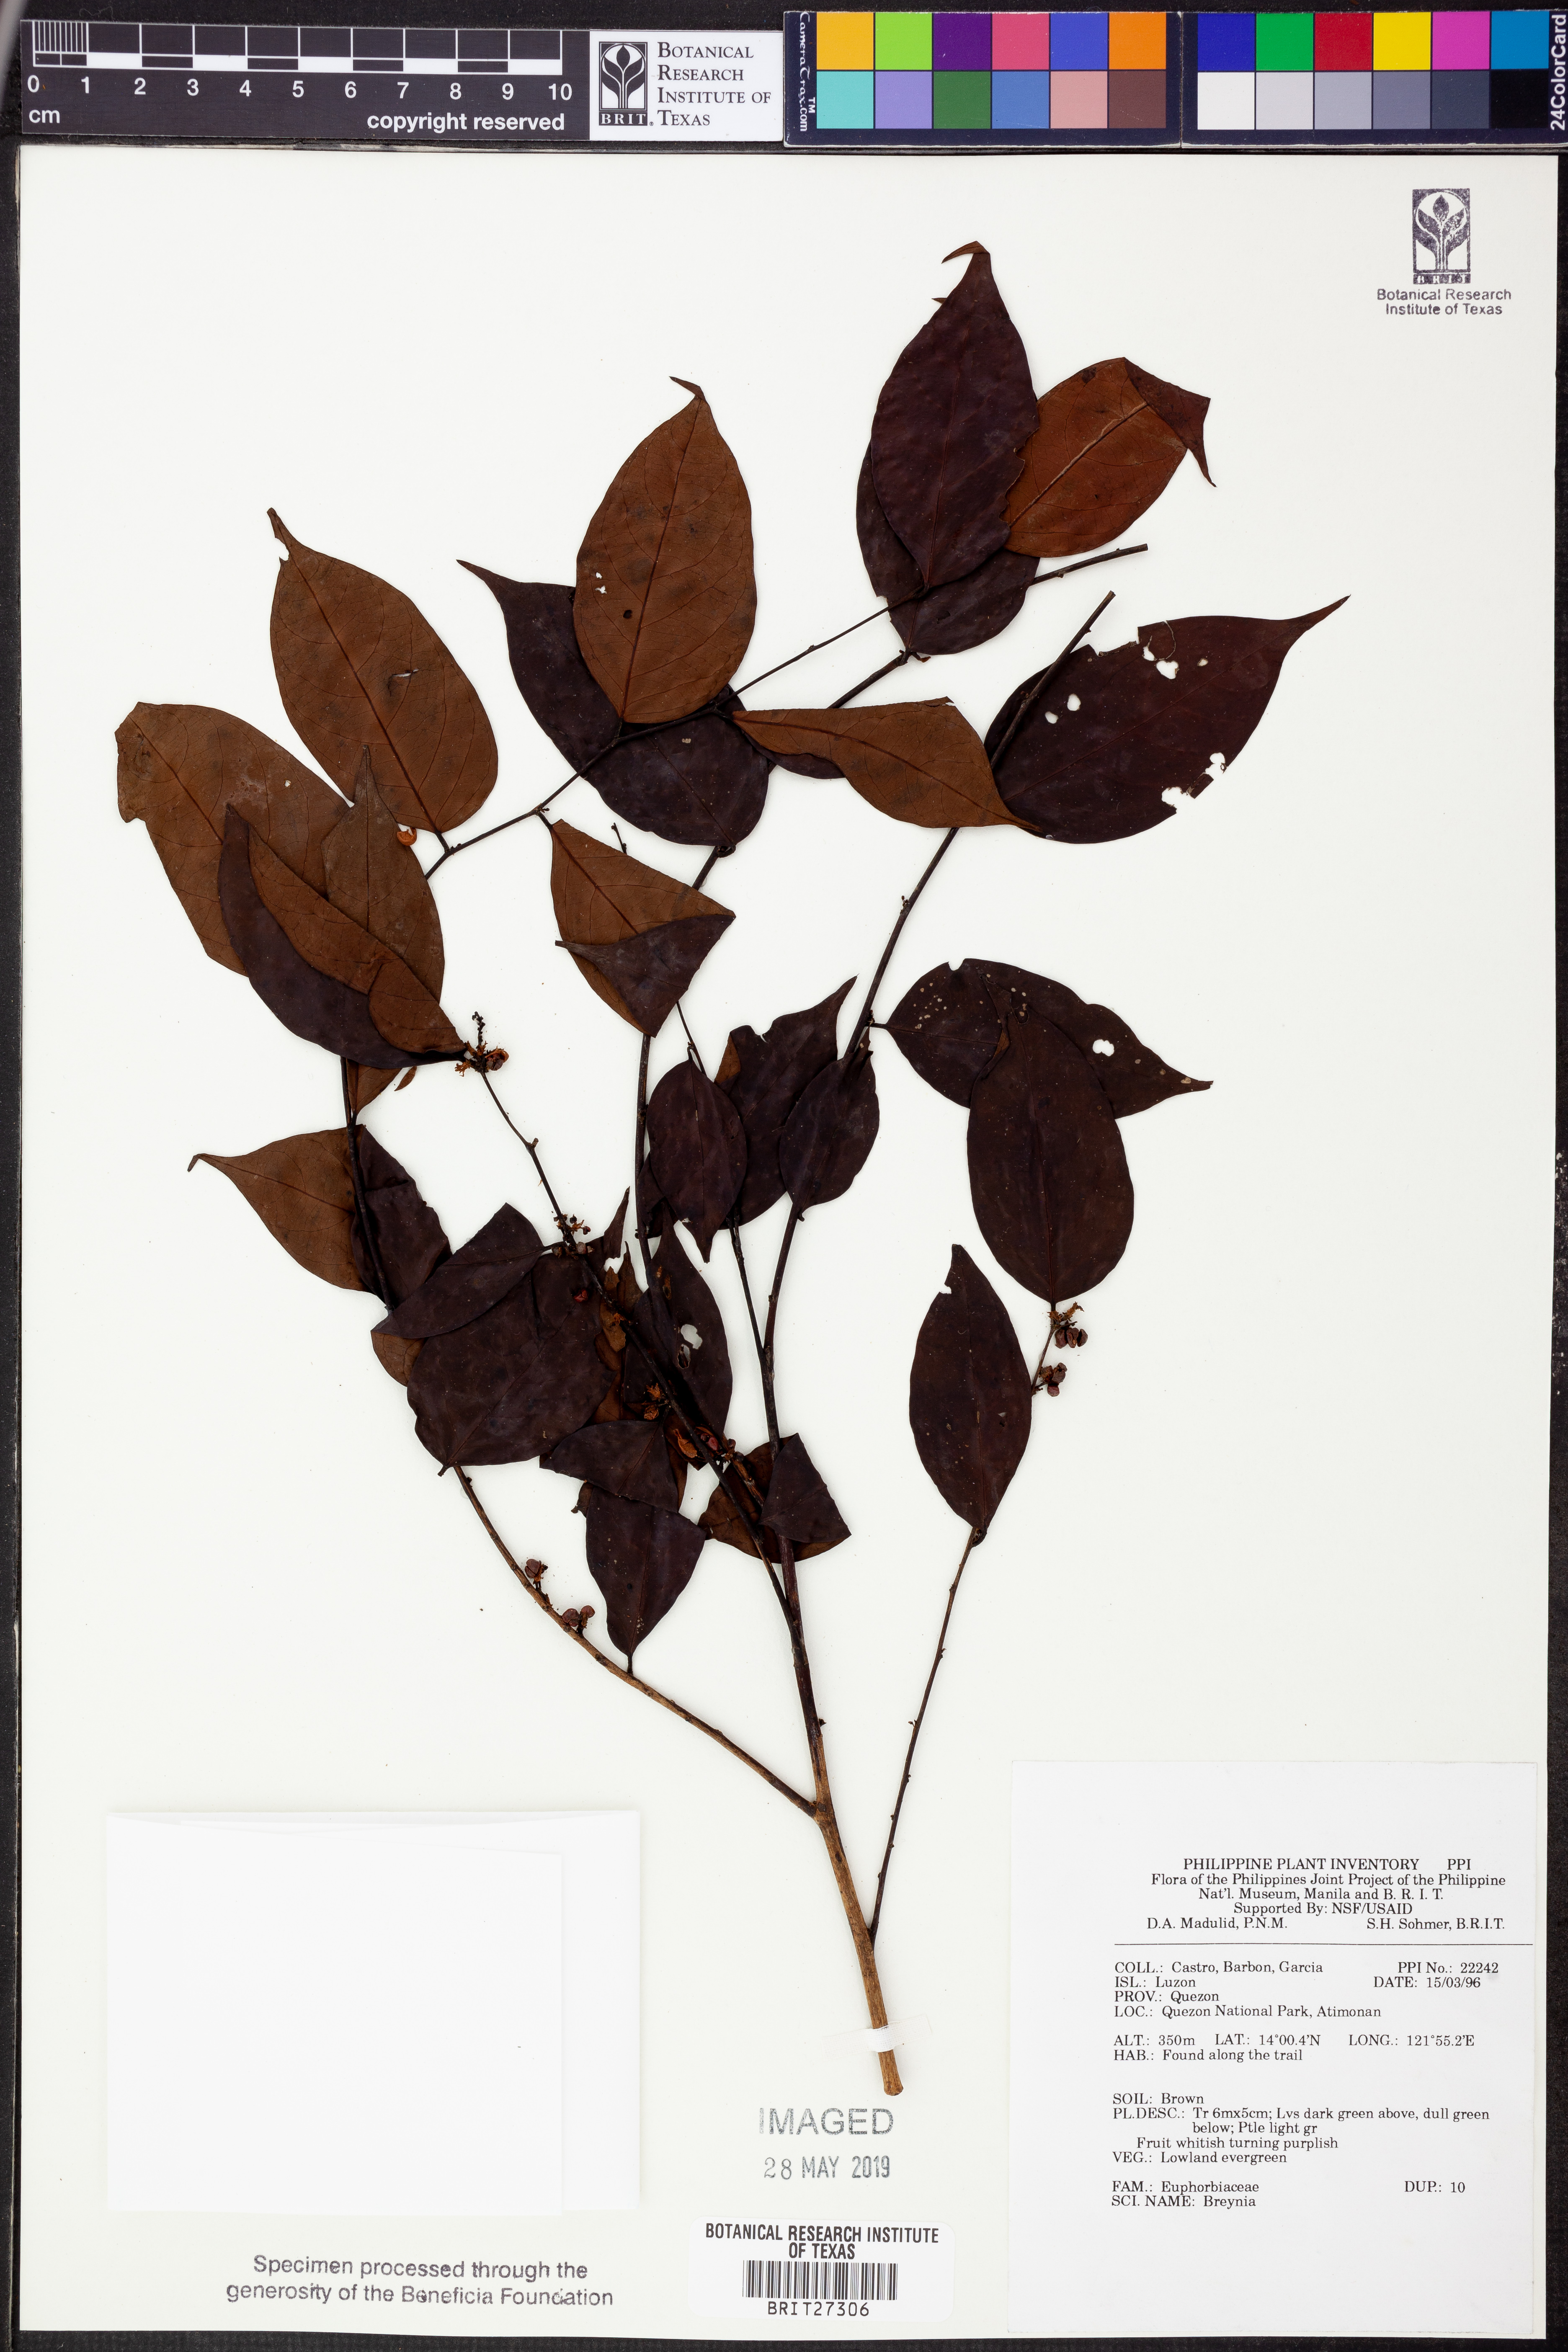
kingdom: Plantae
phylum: Tracheophyta
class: Magnoliopsida
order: Malpighiales
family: Phyllanthaceae
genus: Breynia
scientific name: Breynia
